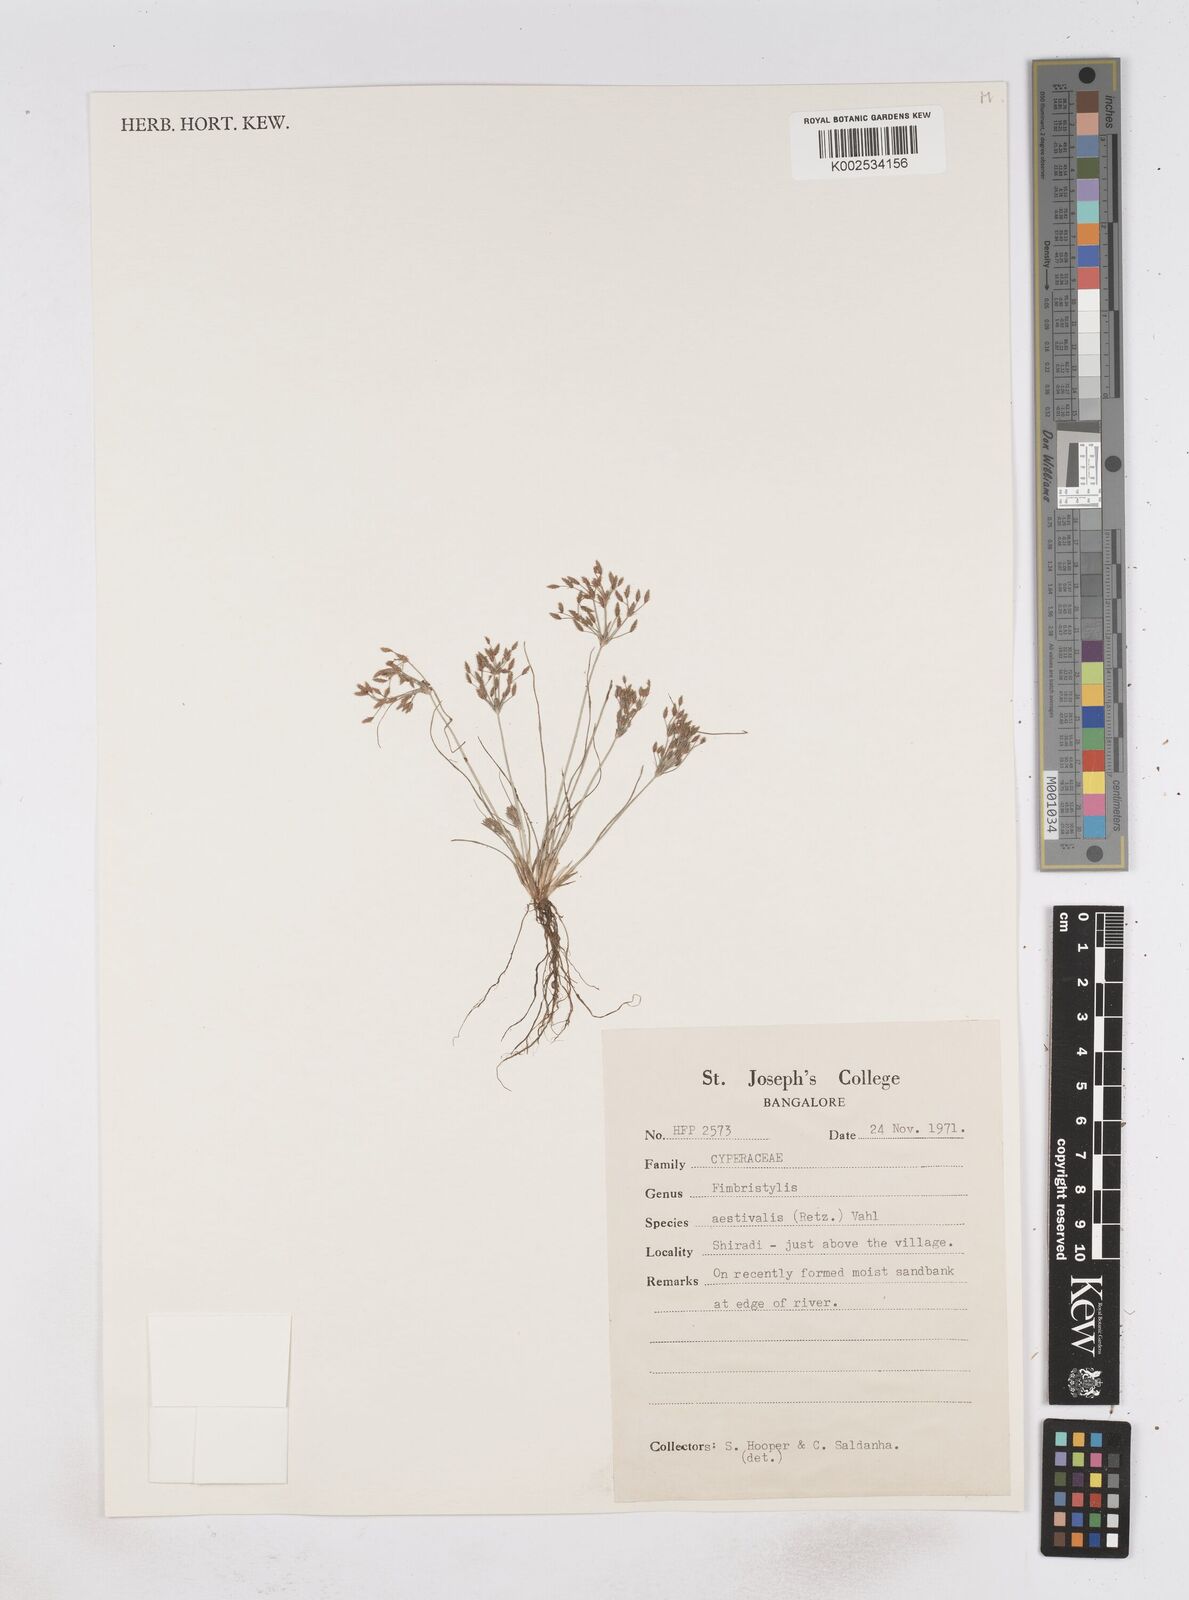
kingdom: Plantae
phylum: Tracheophyta
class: Liliopsida
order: Poales
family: Cyperaceae
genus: Fimbristylis
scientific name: Fimbristylis aestivalis
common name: Summer fimbry
